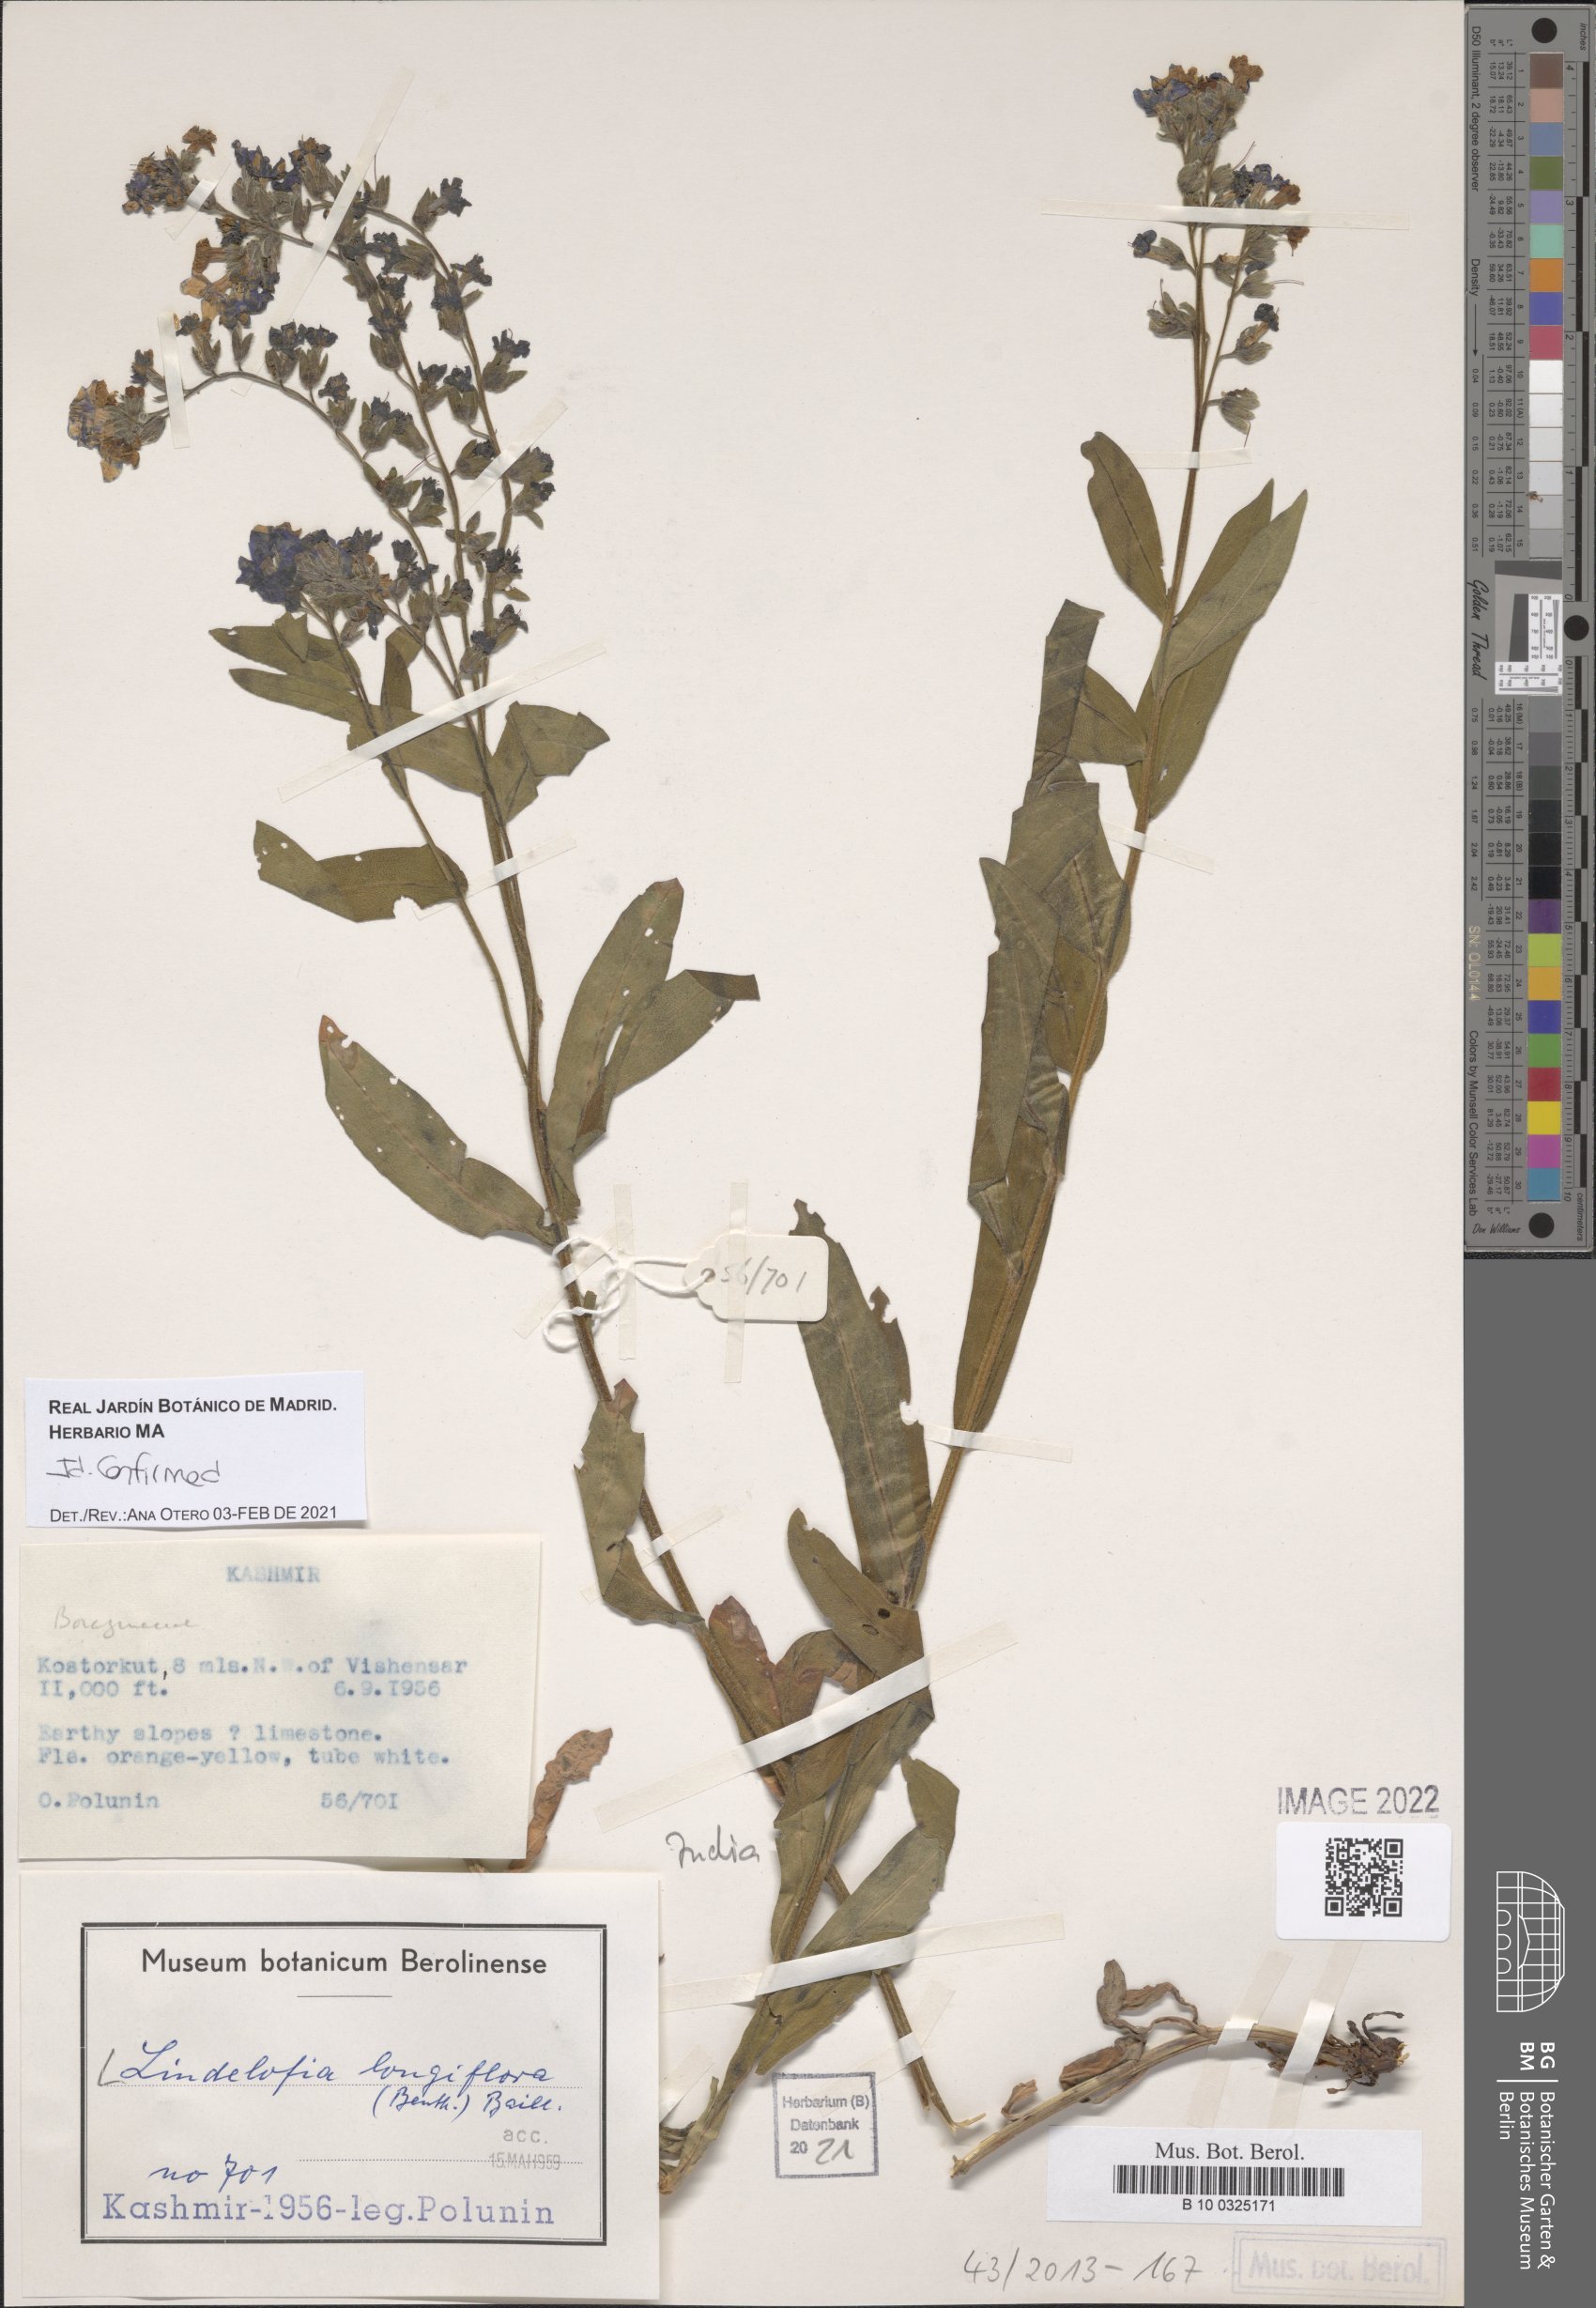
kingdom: Plantae
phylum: Tracheophyta
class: Magnoliopsida
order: Boraginales
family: Boraginaceae
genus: Lindelofia
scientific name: Lindelofia longiflora
